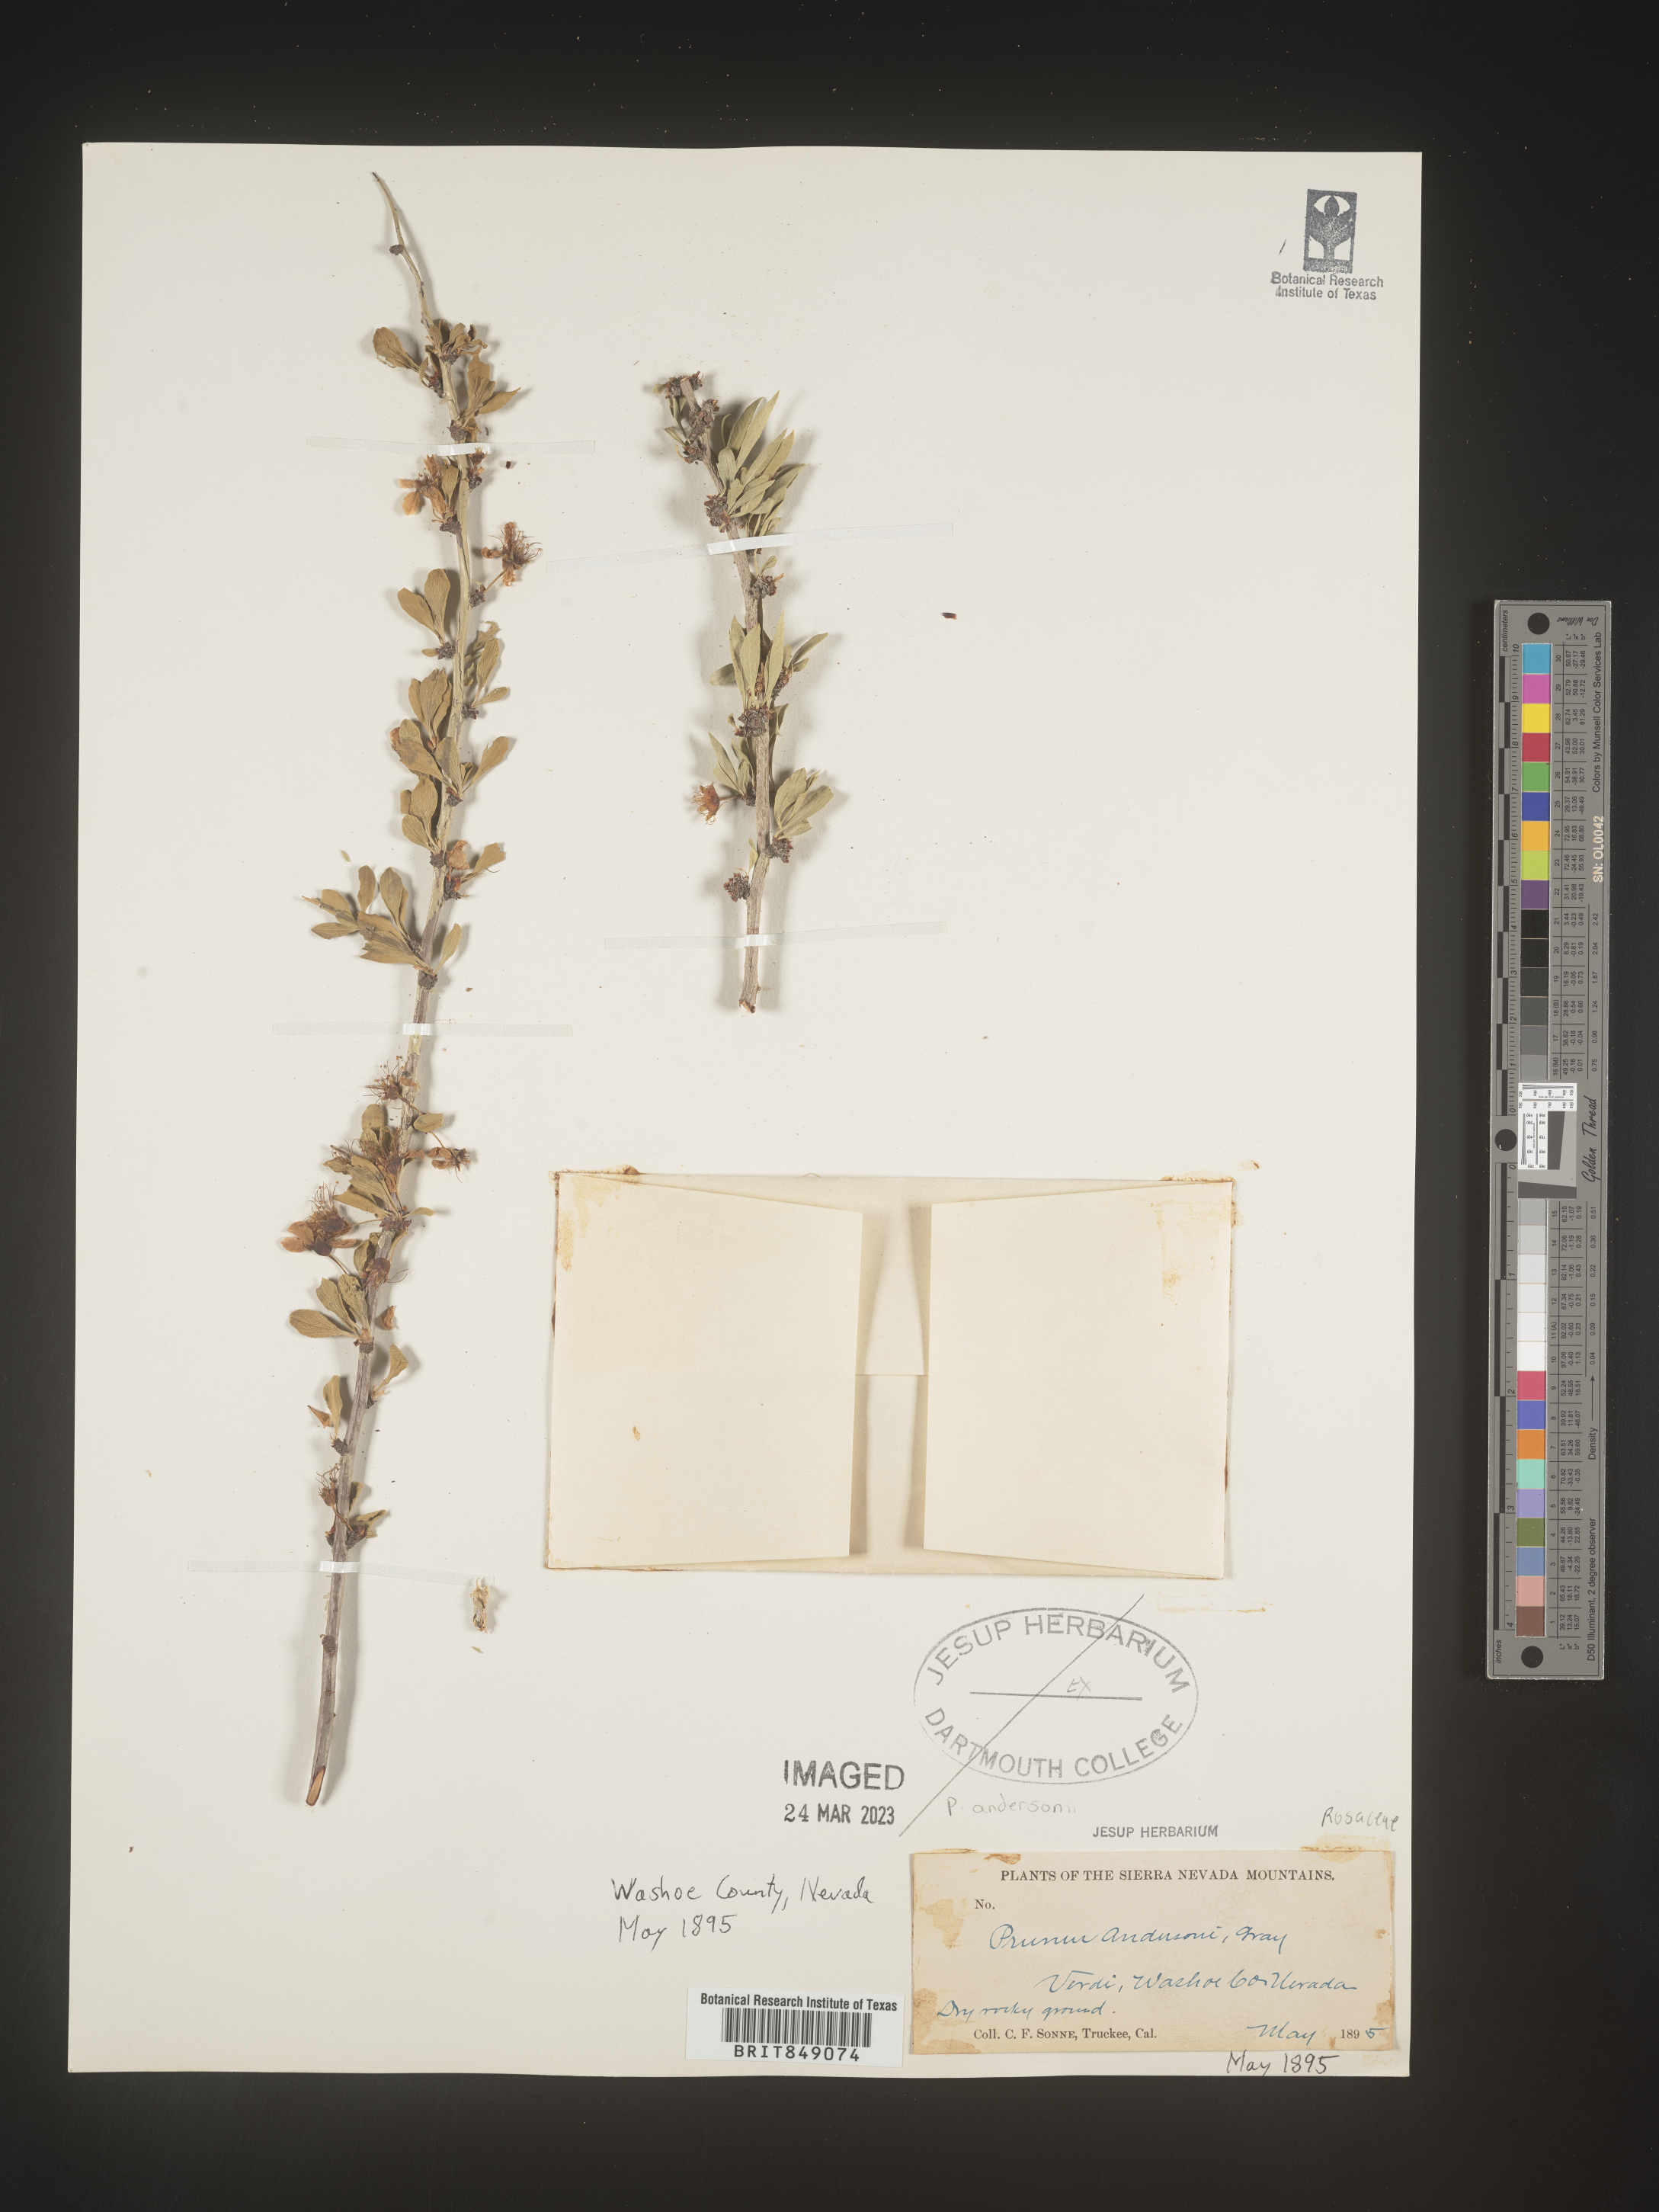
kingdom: Plantae
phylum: Tracheophyta
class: Magnoliopsida
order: Rosales
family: Rosaceae
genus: Prunus
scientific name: Prunus andersonii
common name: Desert peach
